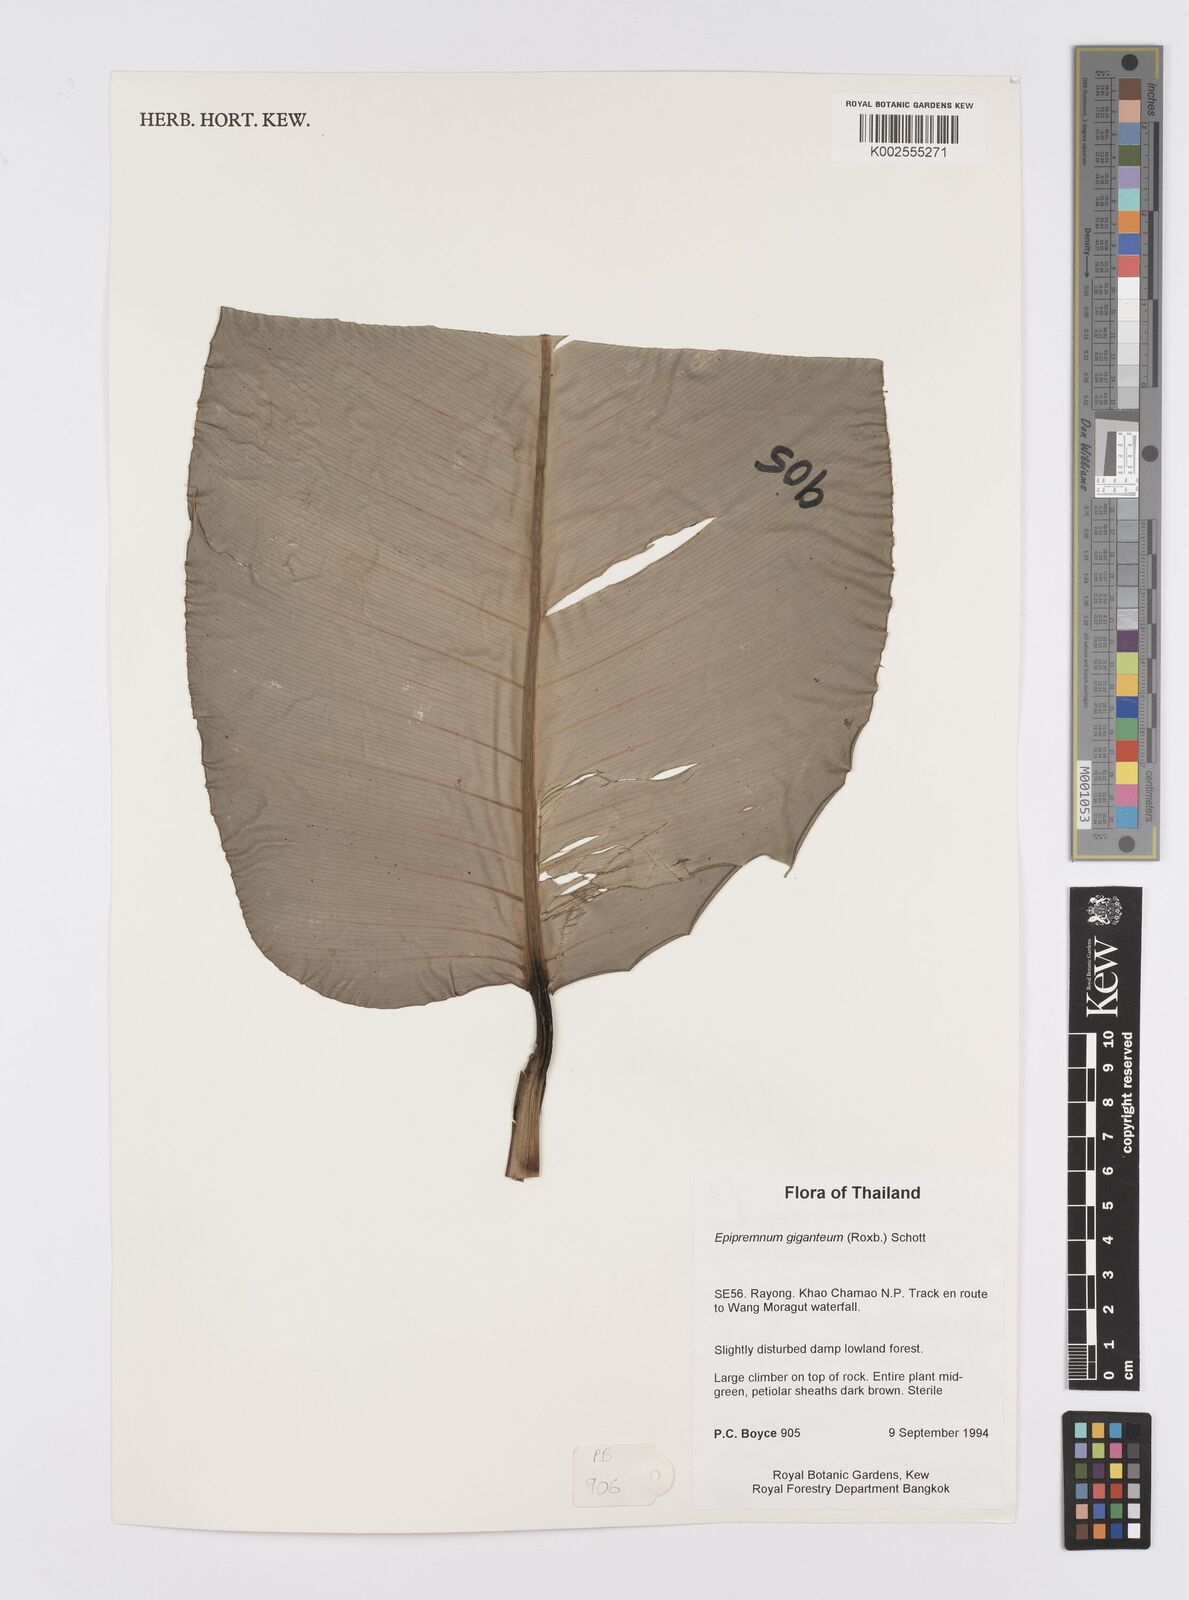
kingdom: Plantae
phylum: Tracheophyta
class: Liliopsida
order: Alismatales
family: Araceae
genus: Epipremnum
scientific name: Epipremnum giganteum
